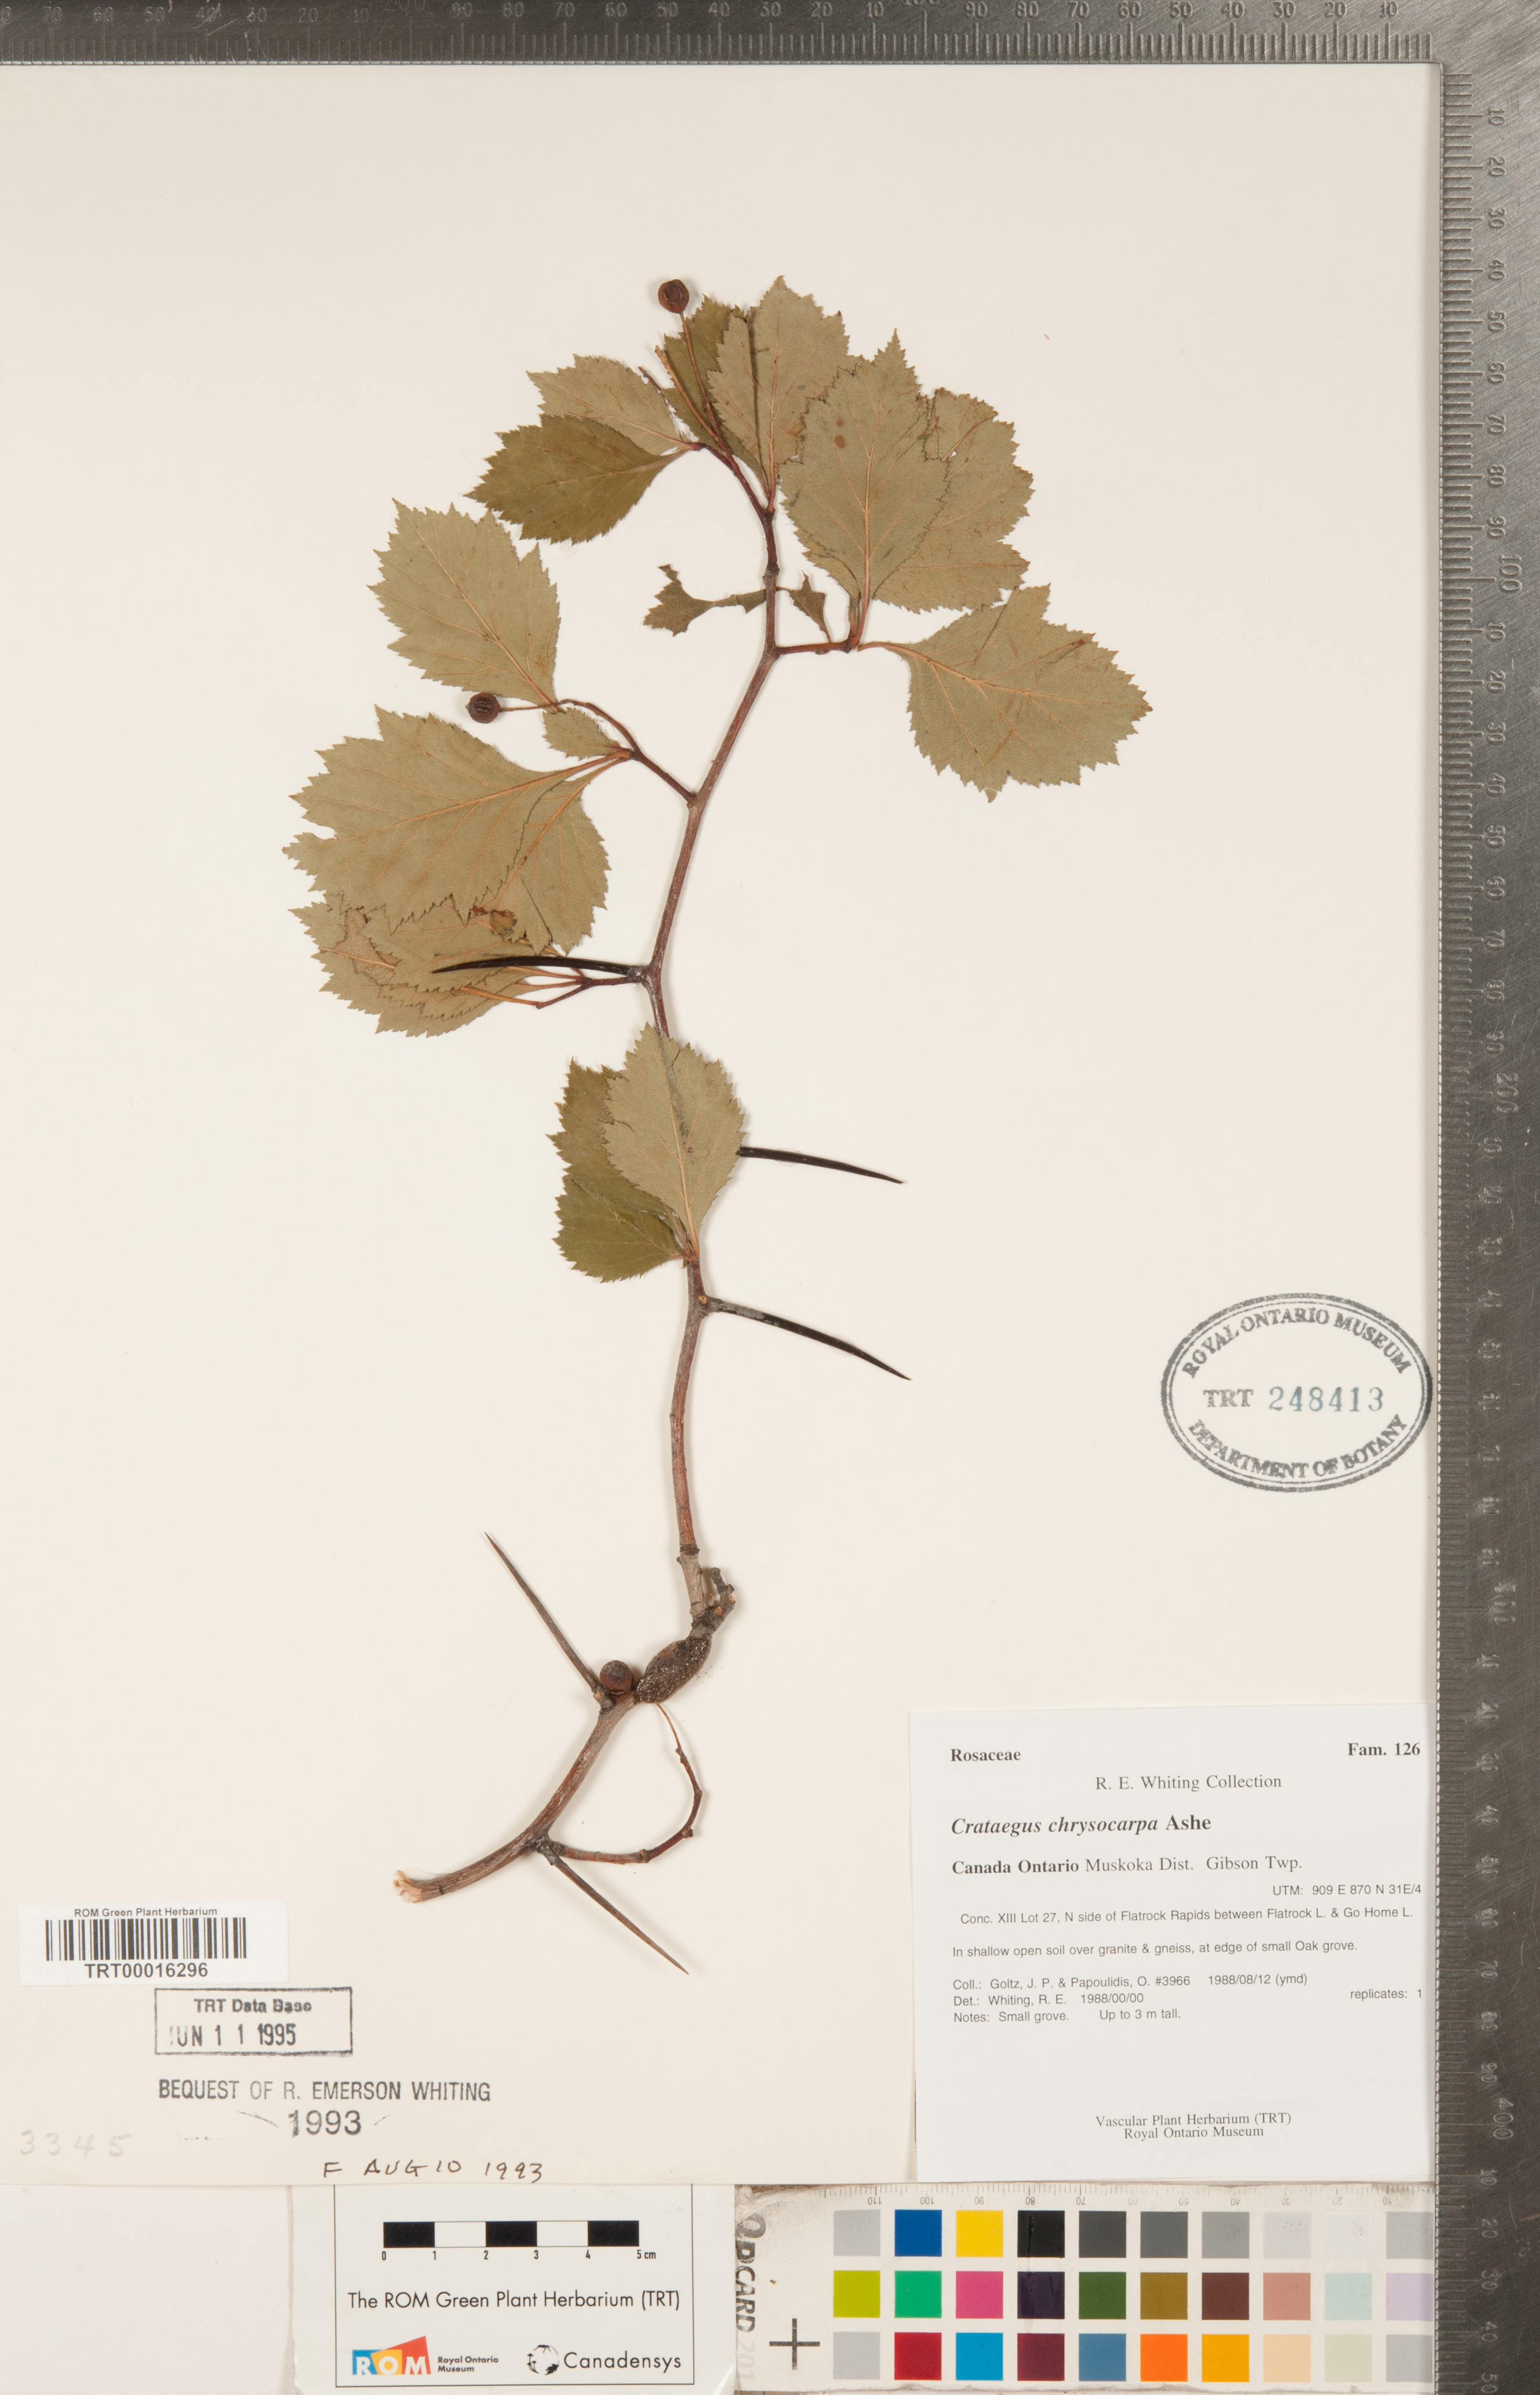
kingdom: Plantae
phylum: Tracheophyta
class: Magnoliopsida
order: Rosales
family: Rosaceae
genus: Crataegus
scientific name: Crataegus chrysocarpa
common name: Fire-berry hawthorn
